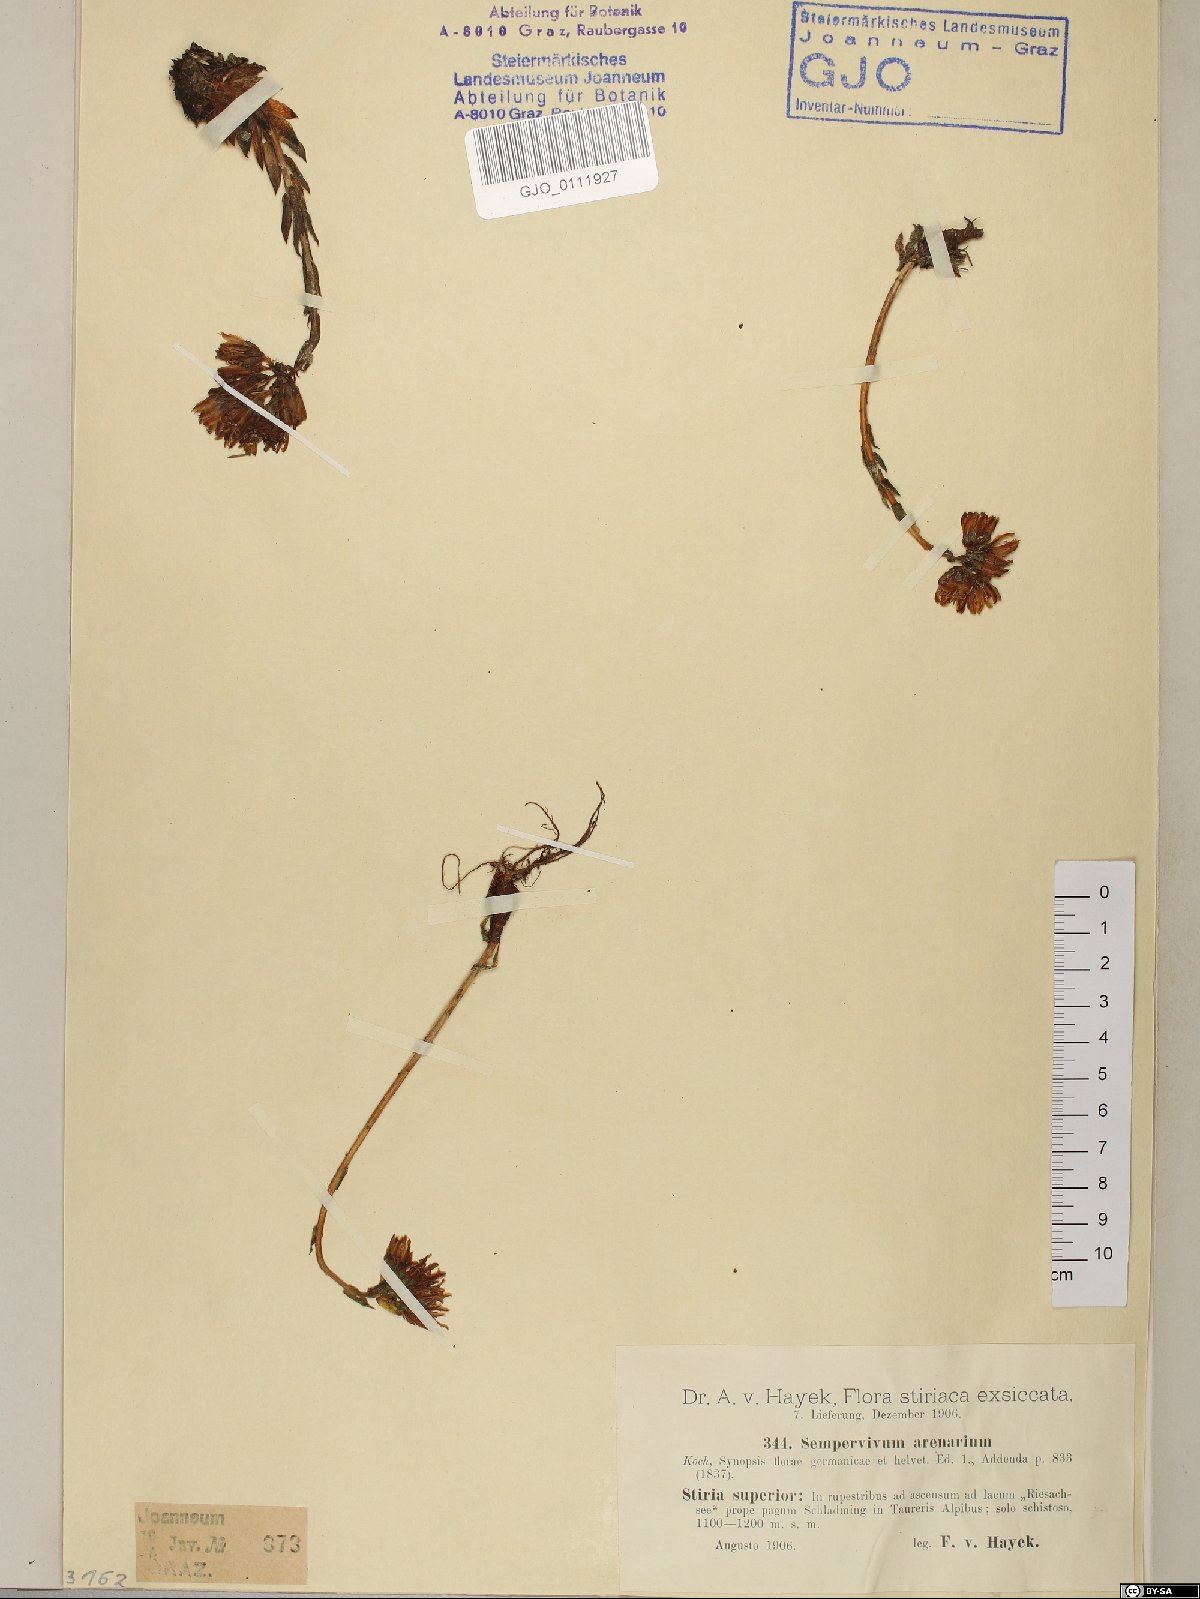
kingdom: Plantae
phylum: Tracheophyta
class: Magnoliopsida
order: Saxifragales
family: Crassulaceae
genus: Sempervivum
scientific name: Sempervivum globiferum
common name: Rolling hen-and-chicks
